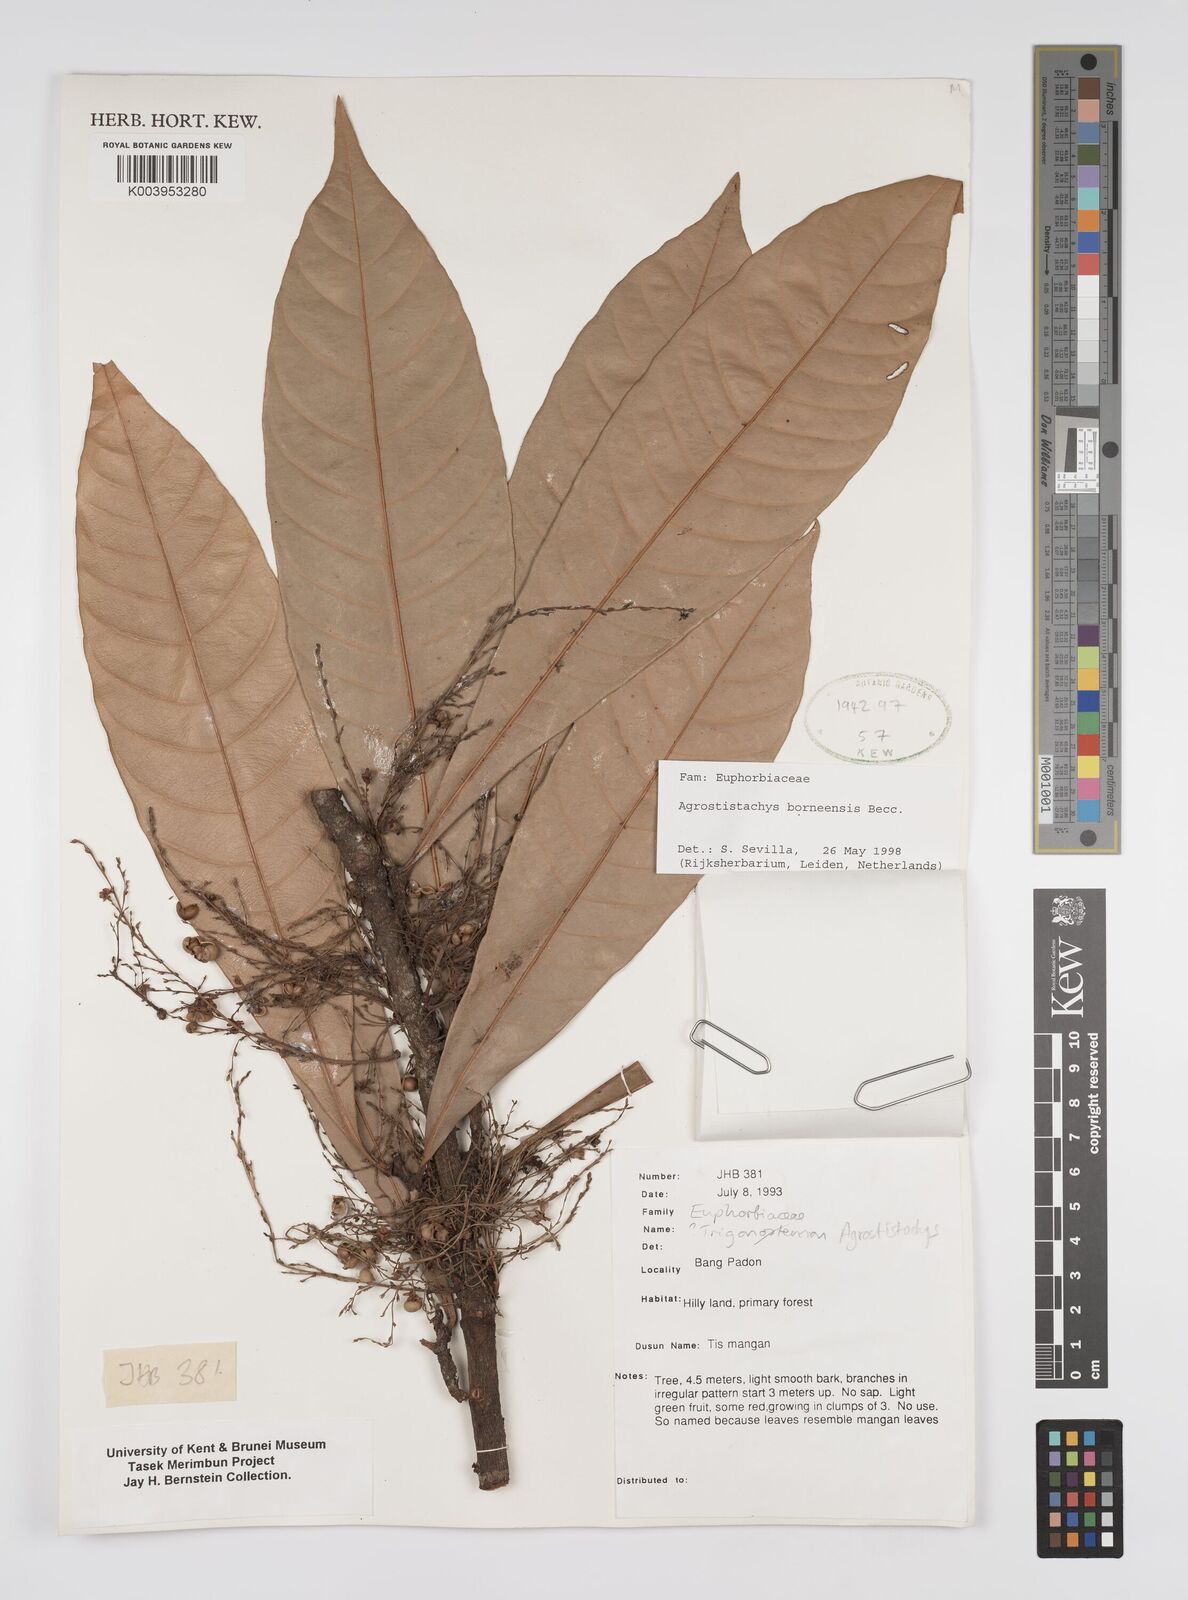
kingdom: Plantae
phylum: Tracheophyta
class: Magnoliopsida
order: Malpighiales
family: Euphorbiaceae
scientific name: Euphorbiaceae
